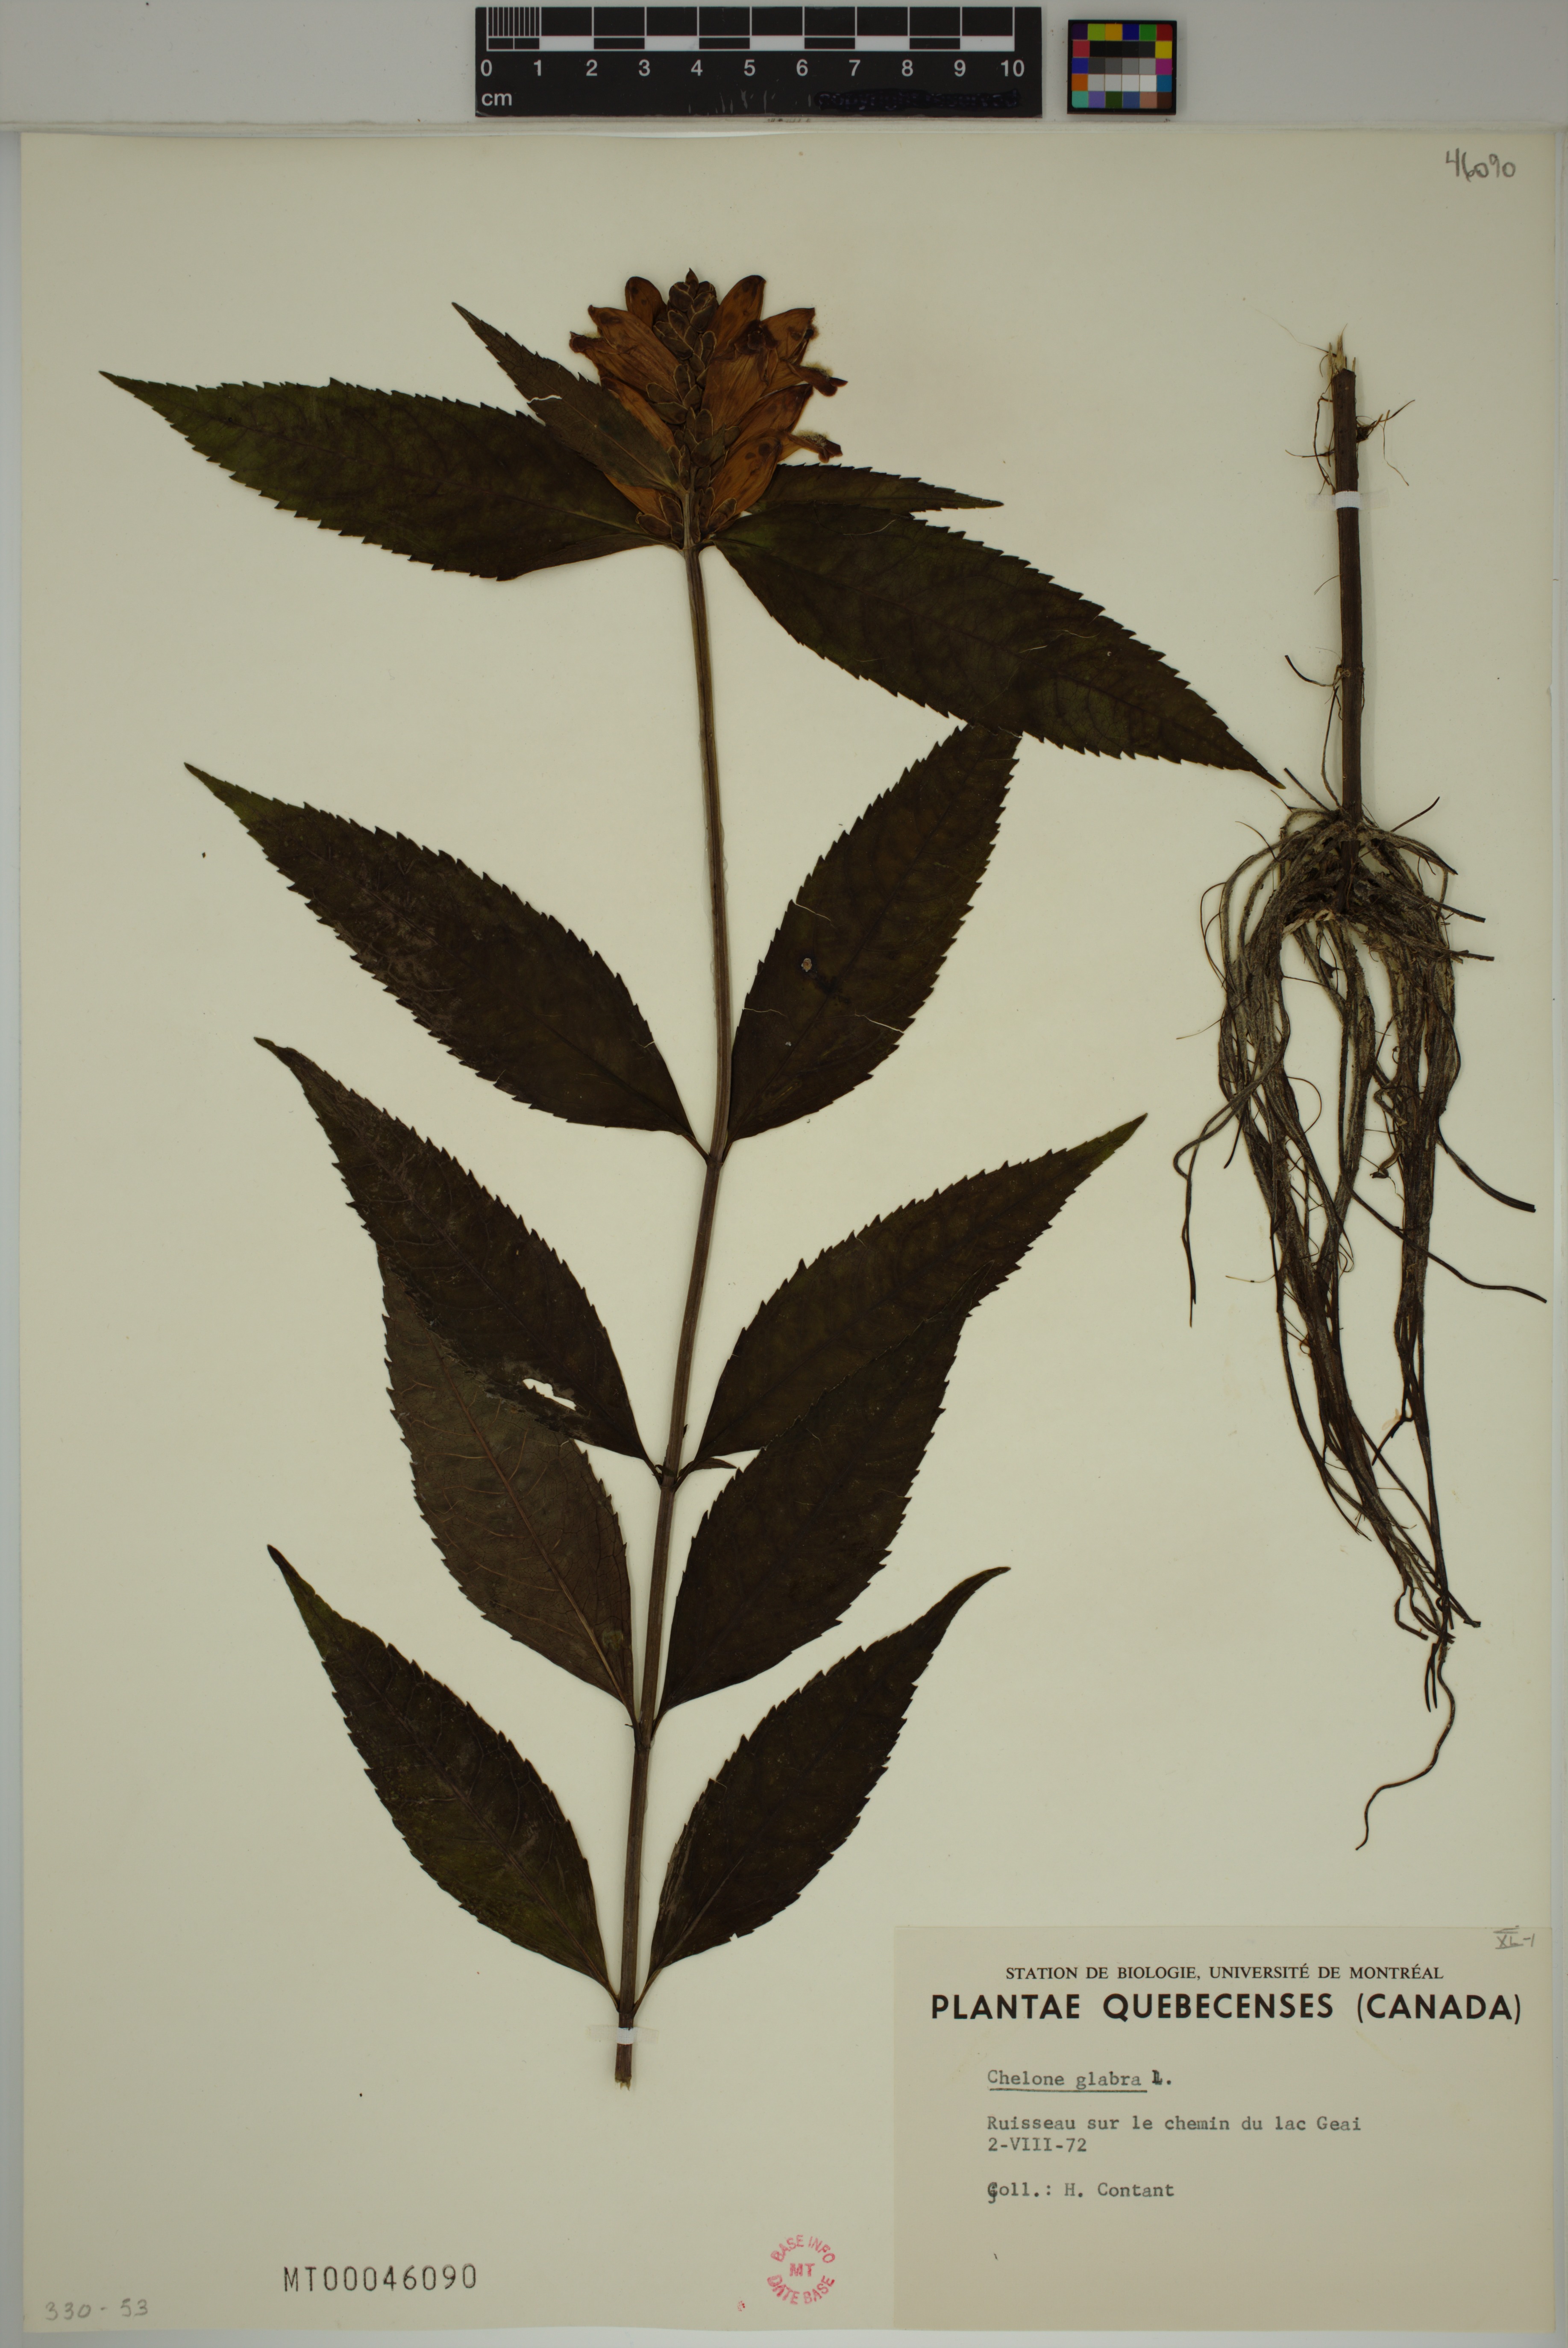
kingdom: Plantae
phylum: Tracheophyta
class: Magnoliopsida
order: Lamiales
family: Plantaginaceae
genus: Chelone
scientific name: Chelone glabra
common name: Snakehead
